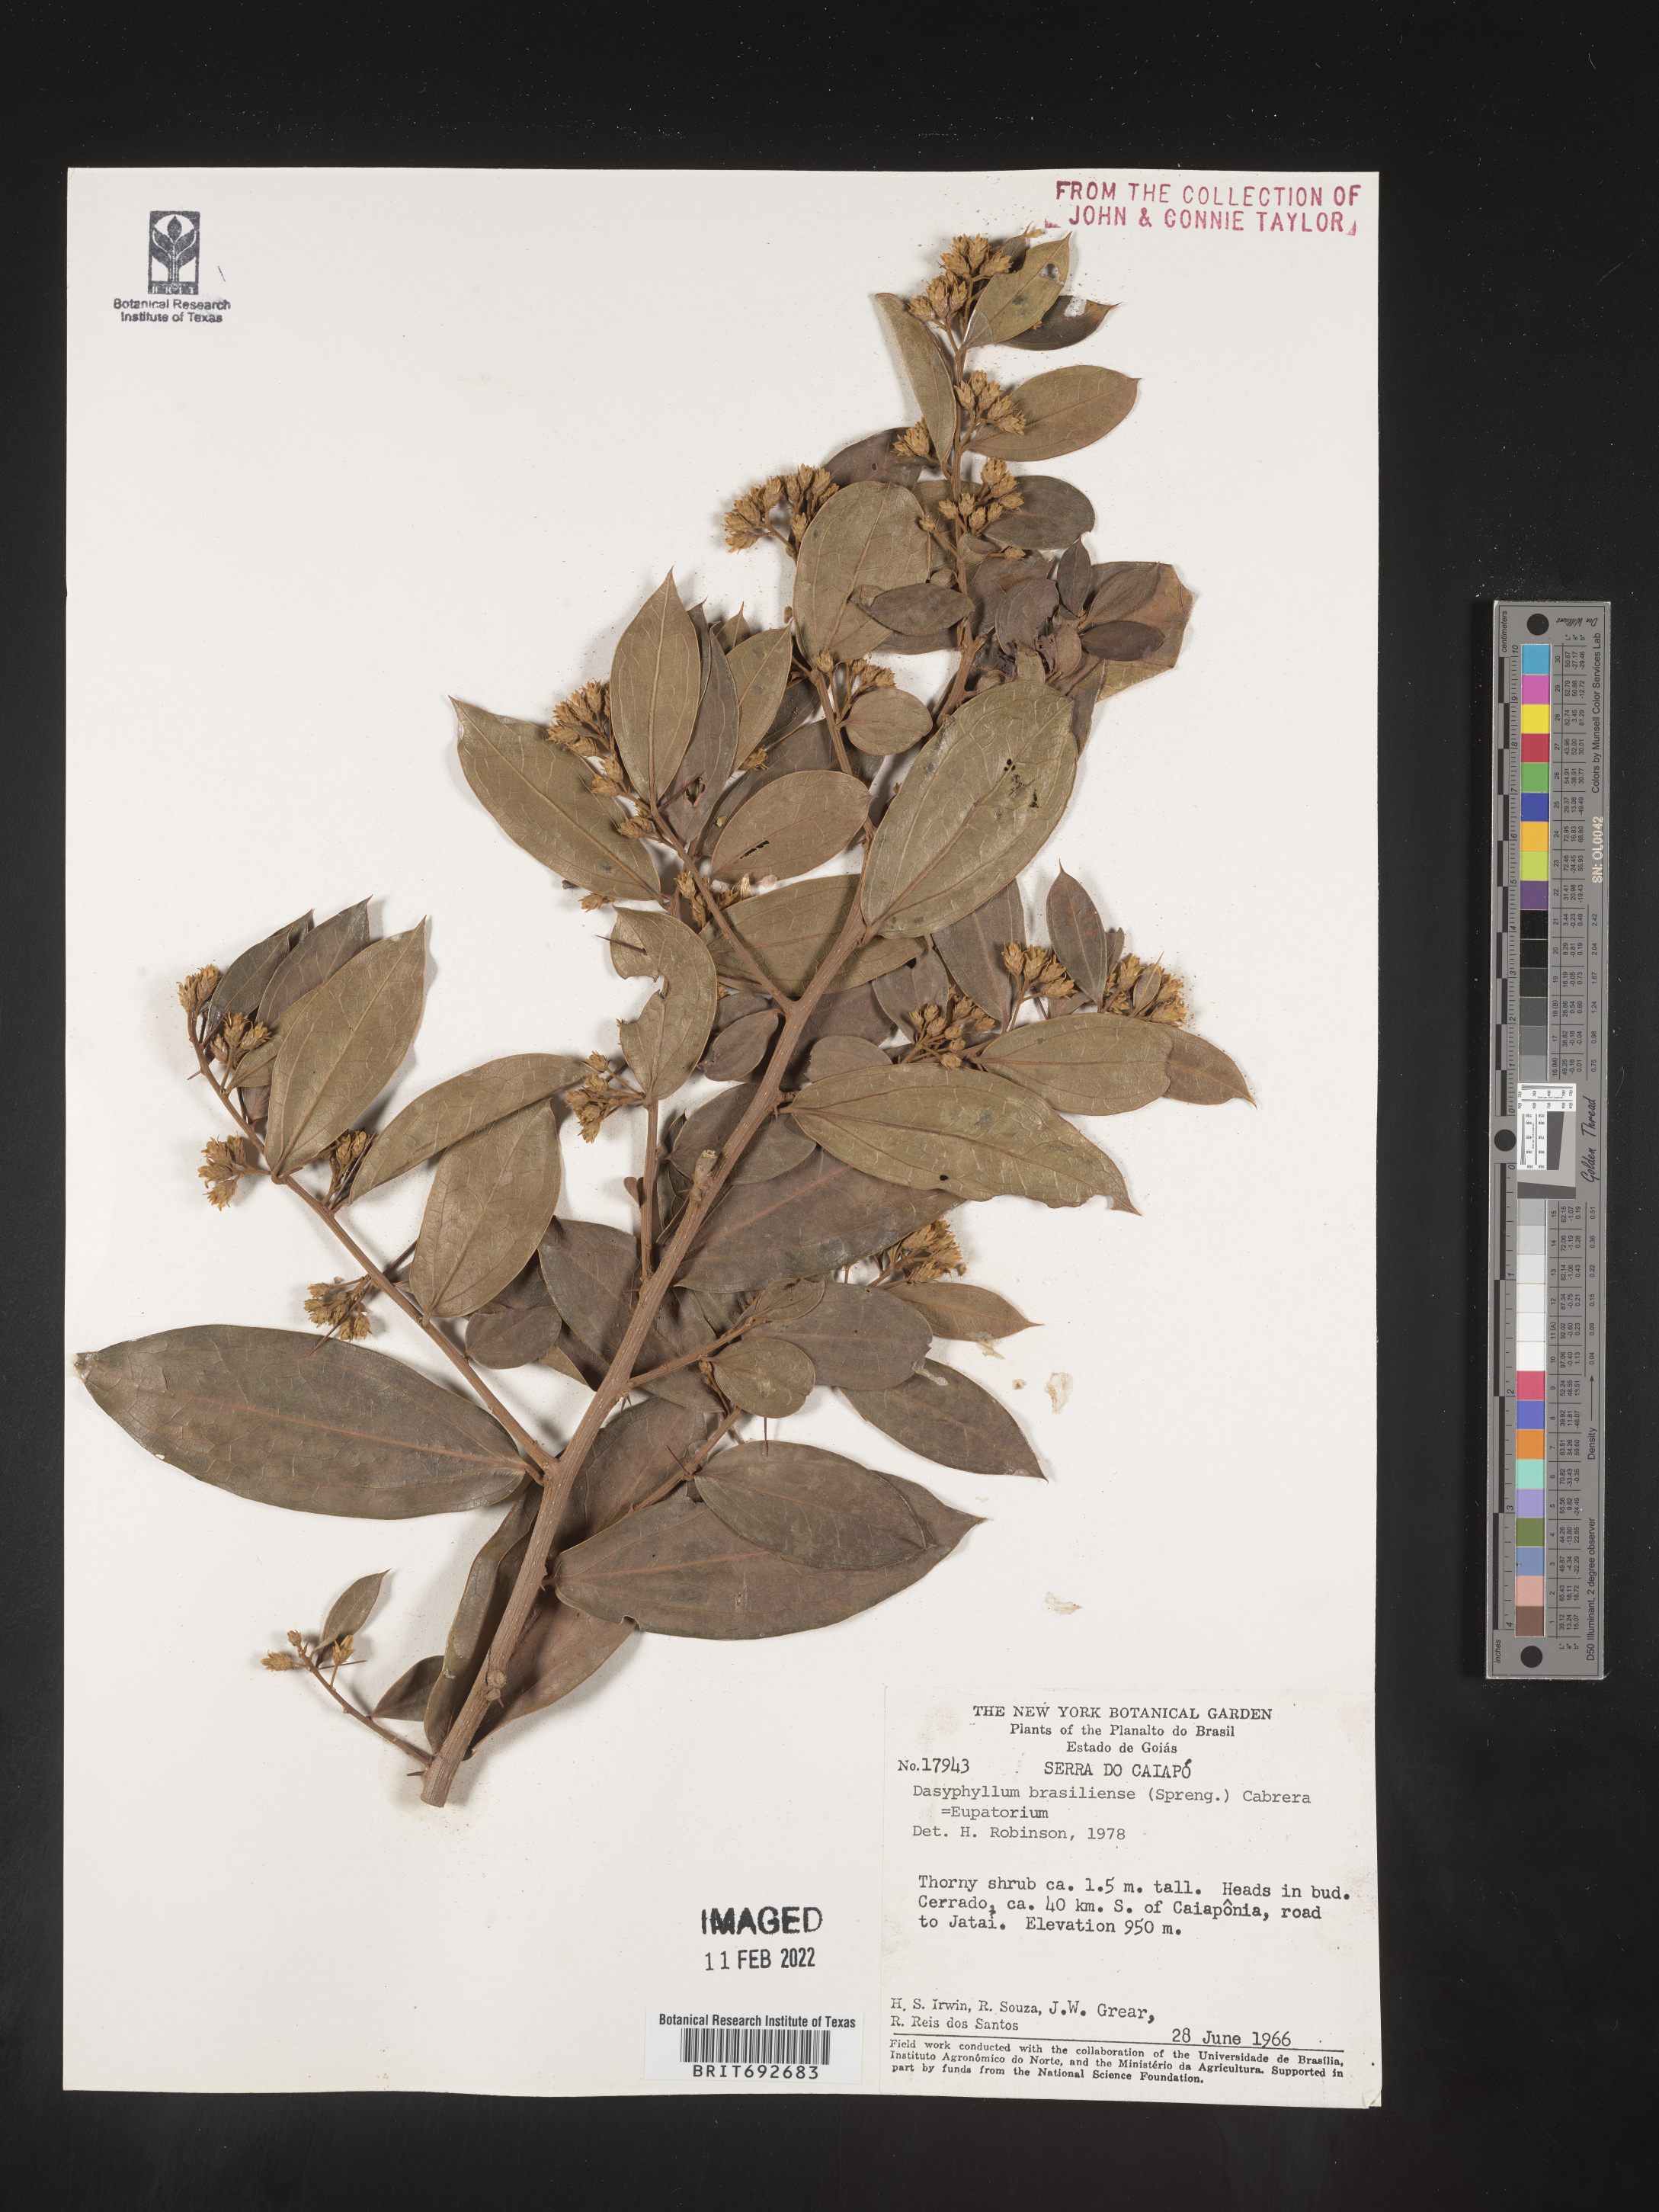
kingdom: Plantae
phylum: Tracheophyta
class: Magnoliopsida
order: Asterales
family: Asteraceae
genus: Dasyphyllum
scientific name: Dasyphyllum
